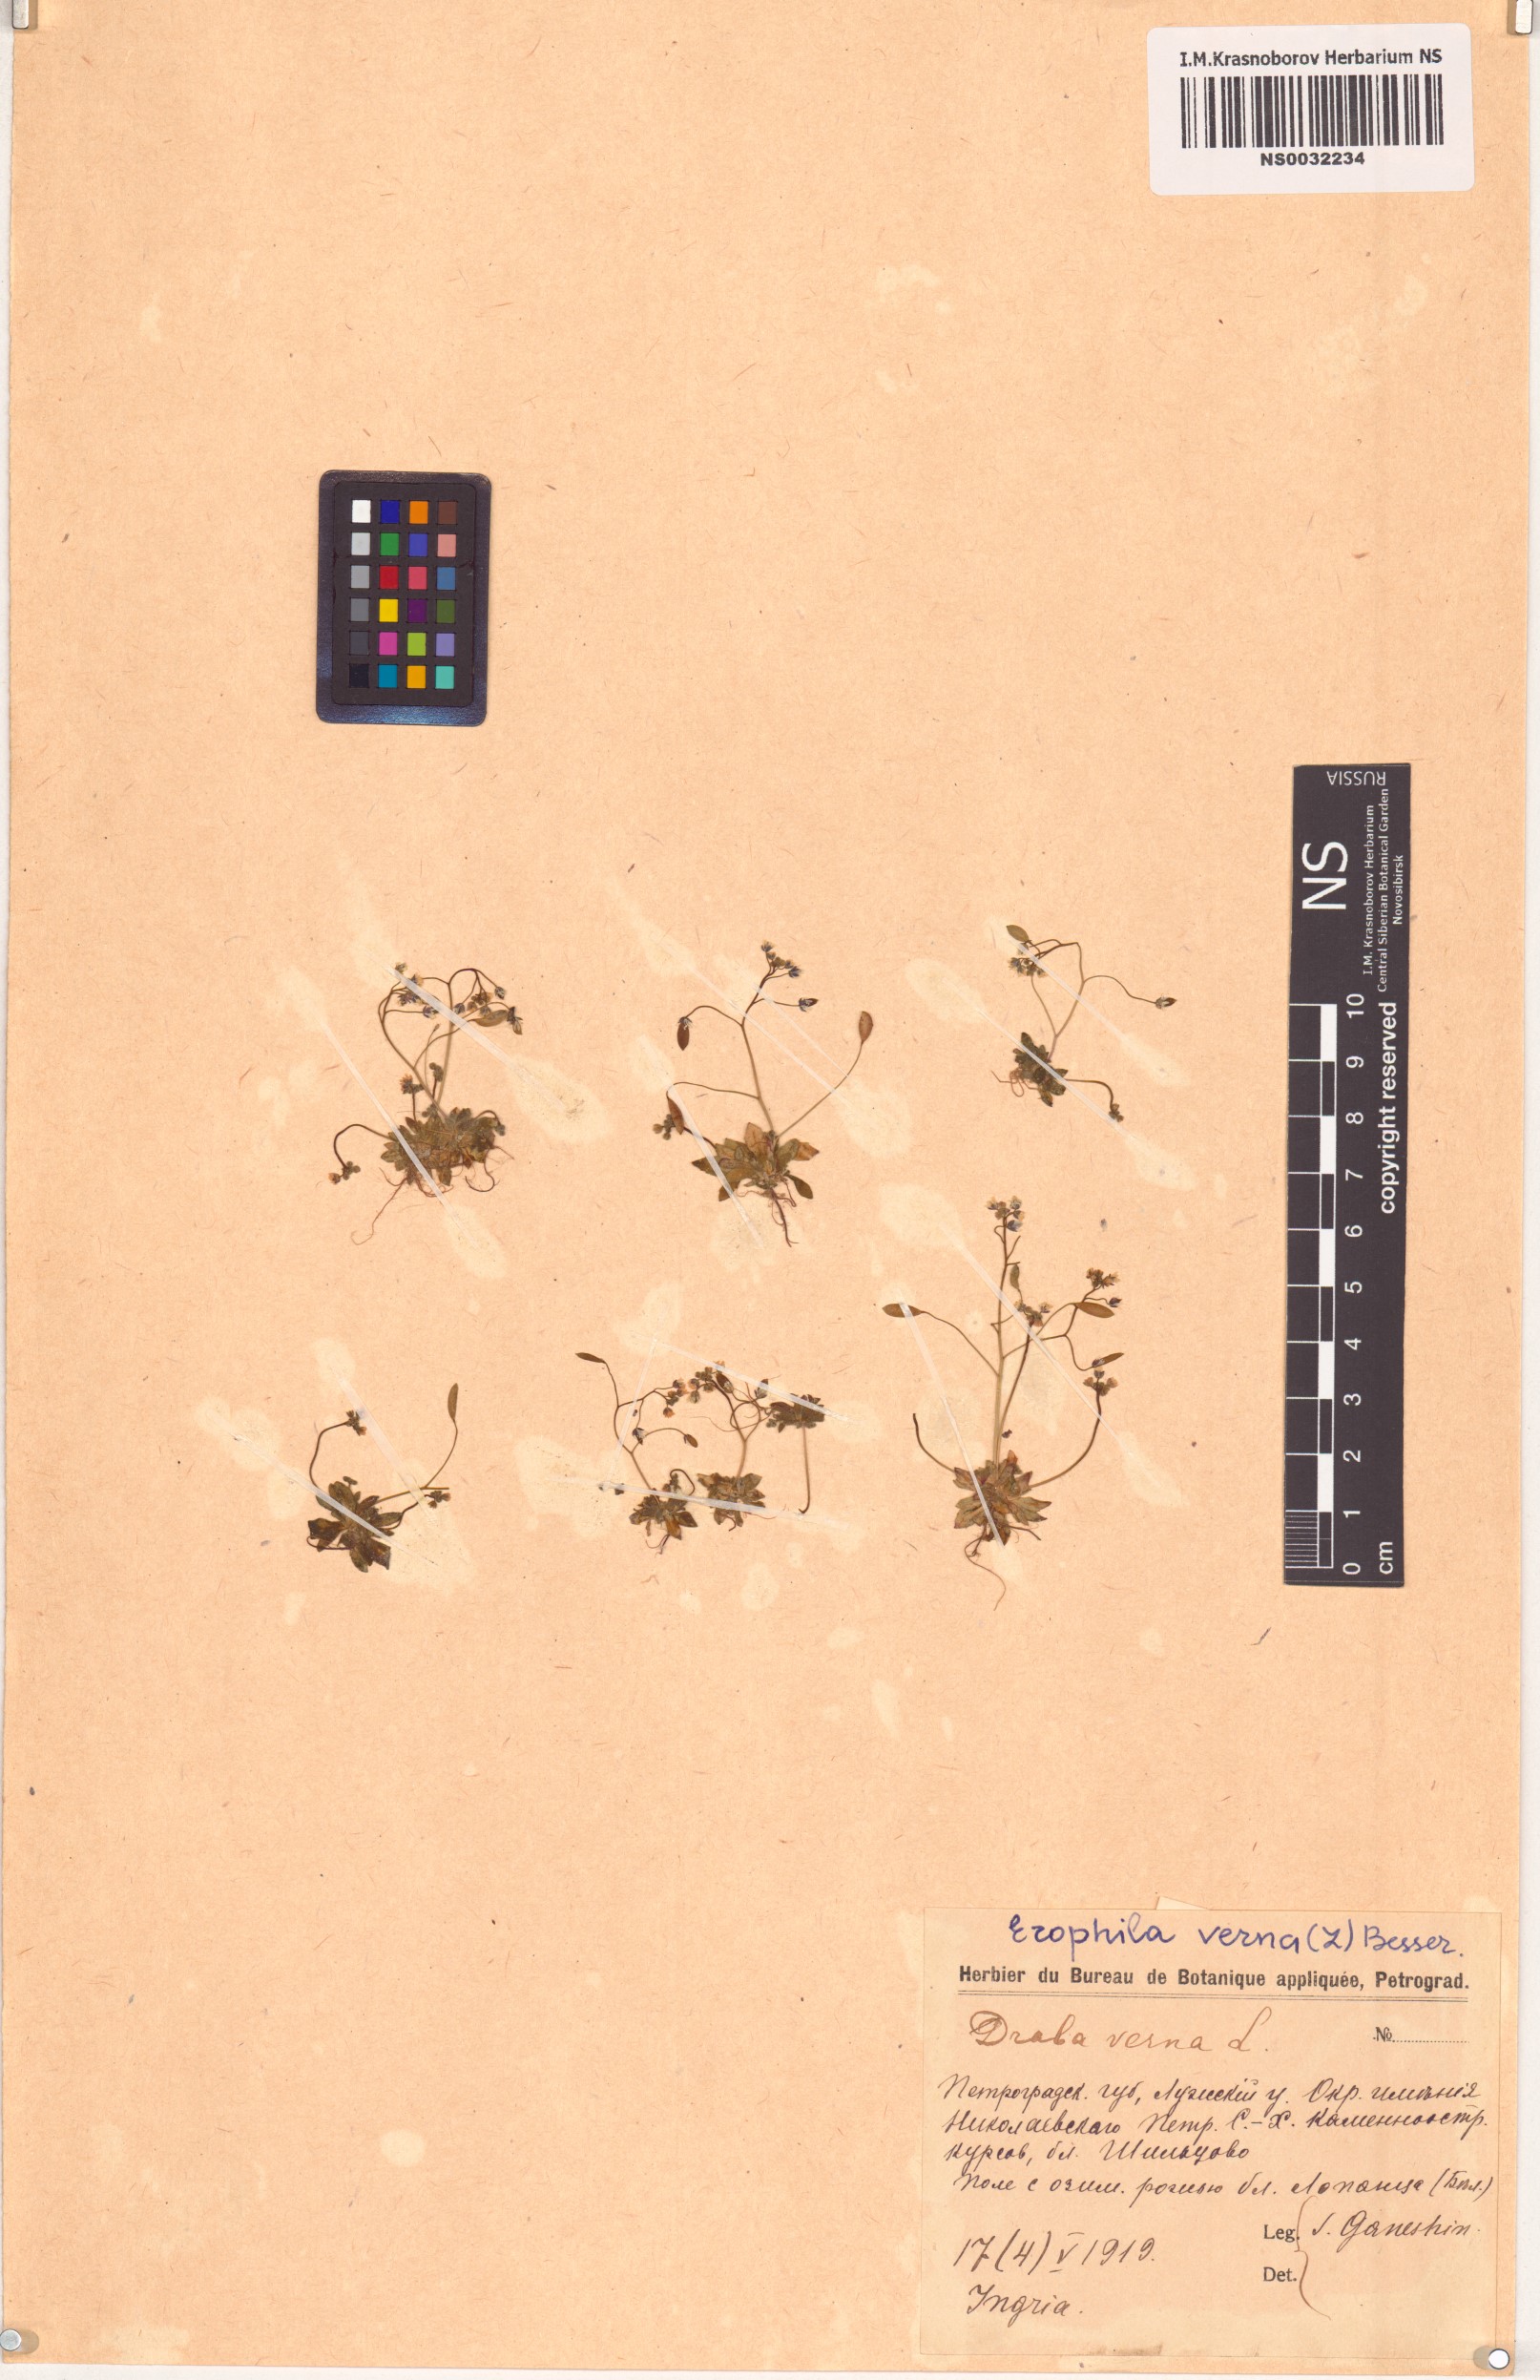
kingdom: Plantae
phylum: Tracheophyta
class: Magnoliopsida
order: Brassicales
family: Brassicaceae
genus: Draba
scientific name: Draba verna
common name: Spring draba
